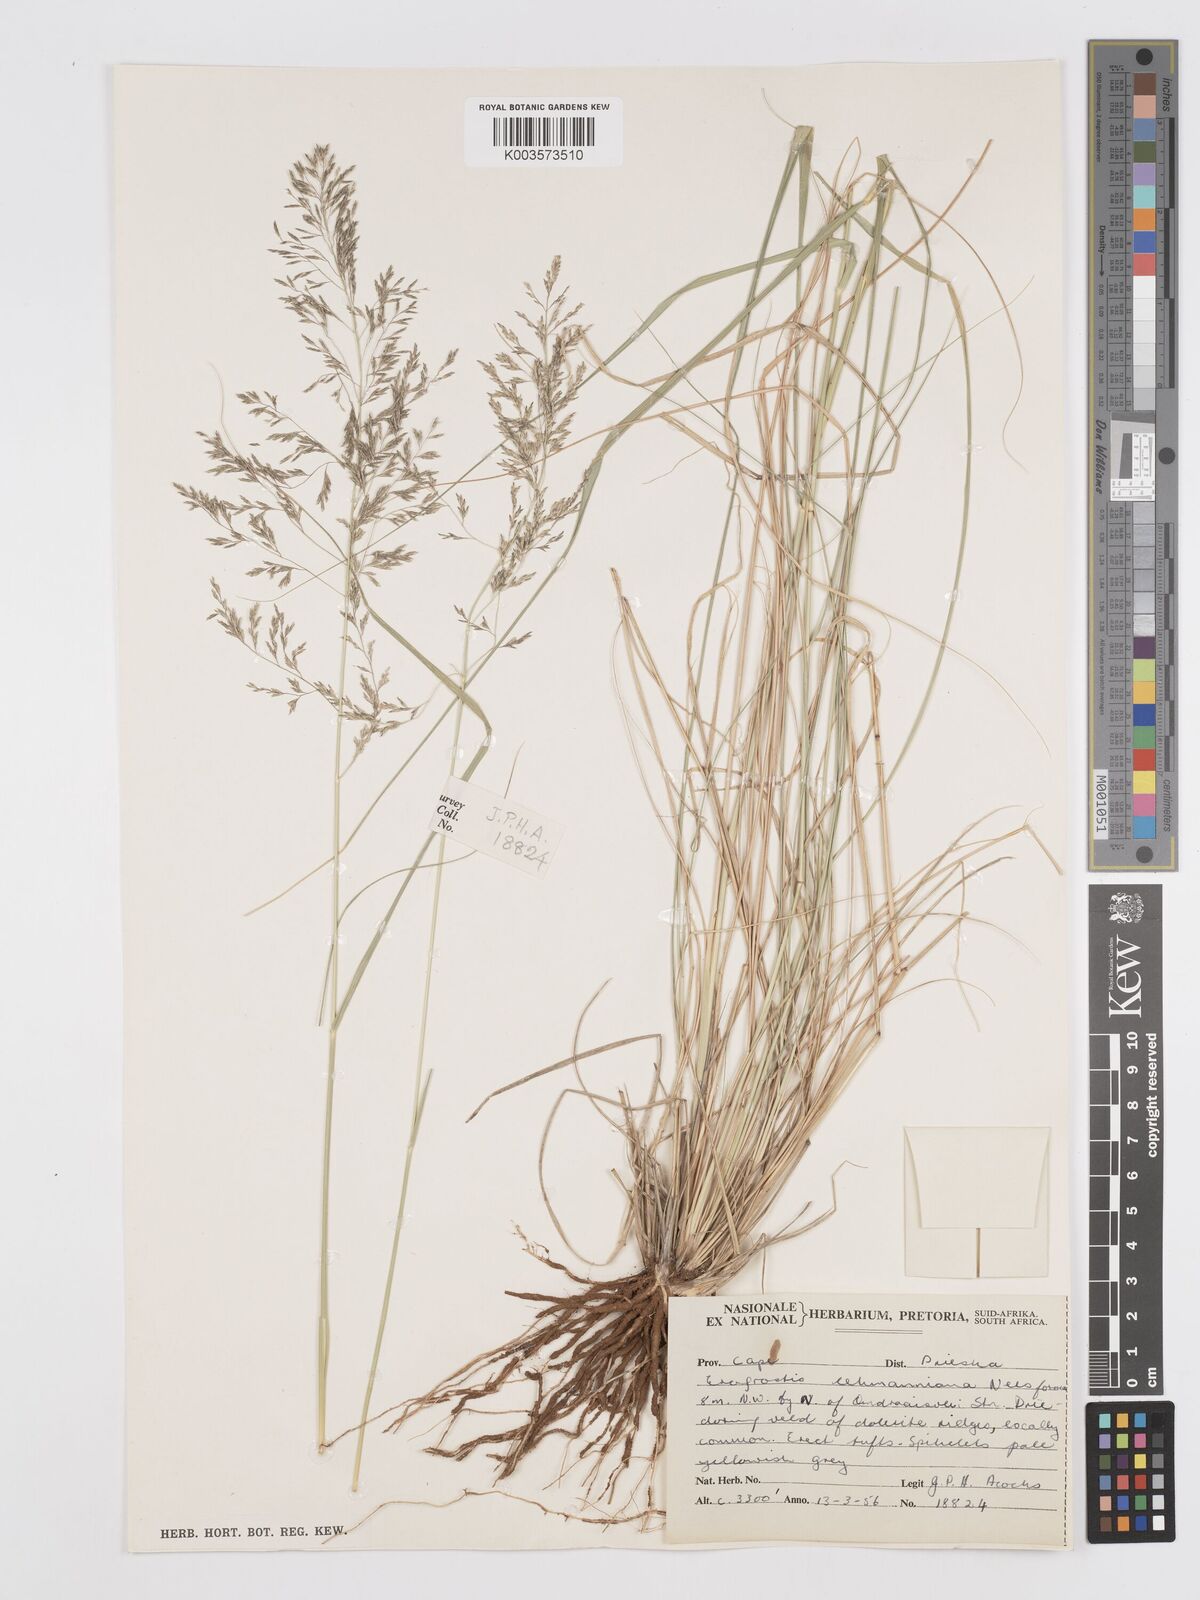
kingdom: Plantae
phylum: Tracheophyta
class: Liliopsida
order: Poales
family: Poaceae
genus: Eragrostis
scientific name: Eragrostis lehmanniana
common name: Lehmann lovegrass
